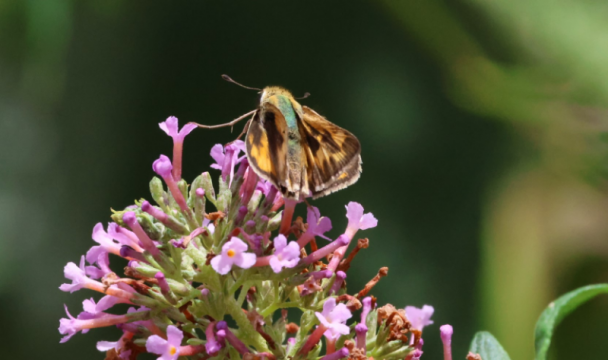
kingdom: Animalia
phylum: Arthropoda
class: Insecta
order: Lepidoptera
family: Hesperiidae
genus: Hylephila
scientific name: Hylephila phyleus
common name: Fiery Skipper
